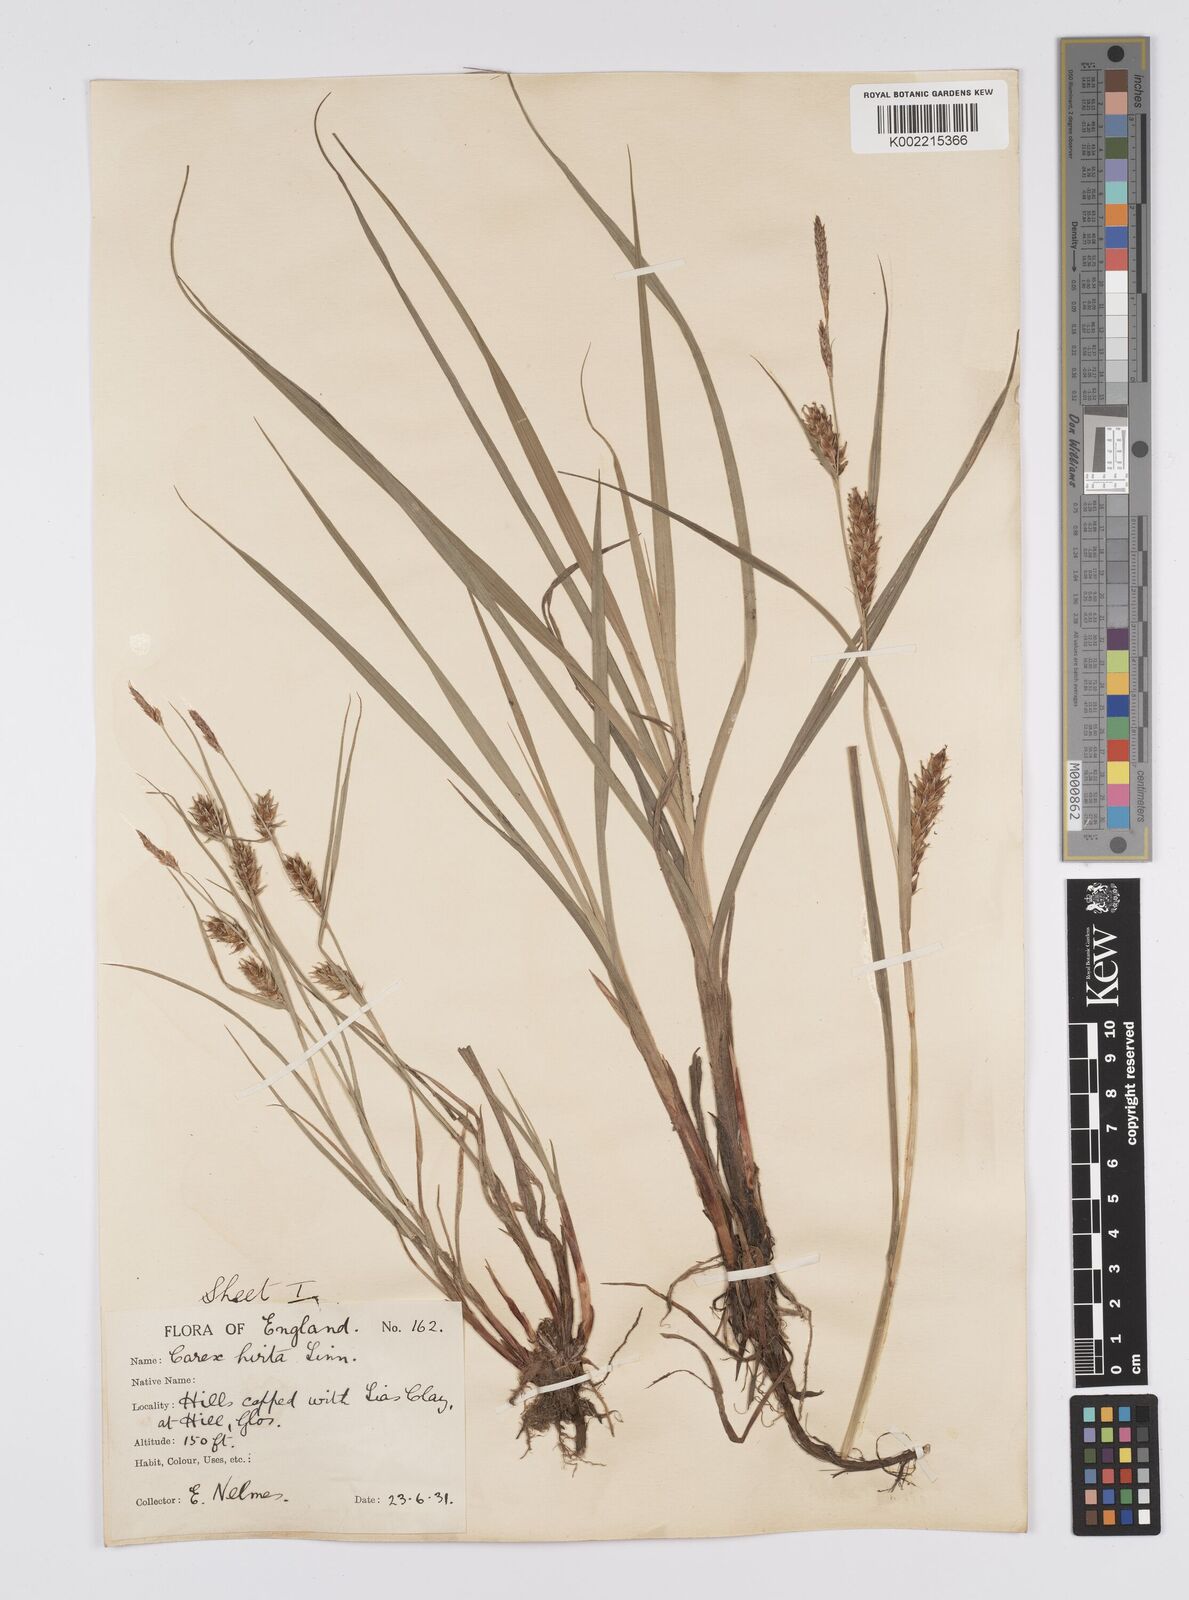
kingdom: Plantae
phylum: Tracheophyta
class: Liliopsida
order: Poales
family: Cyperaceae
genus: Carex
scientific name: Carex hirta
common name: Hairy sedge
